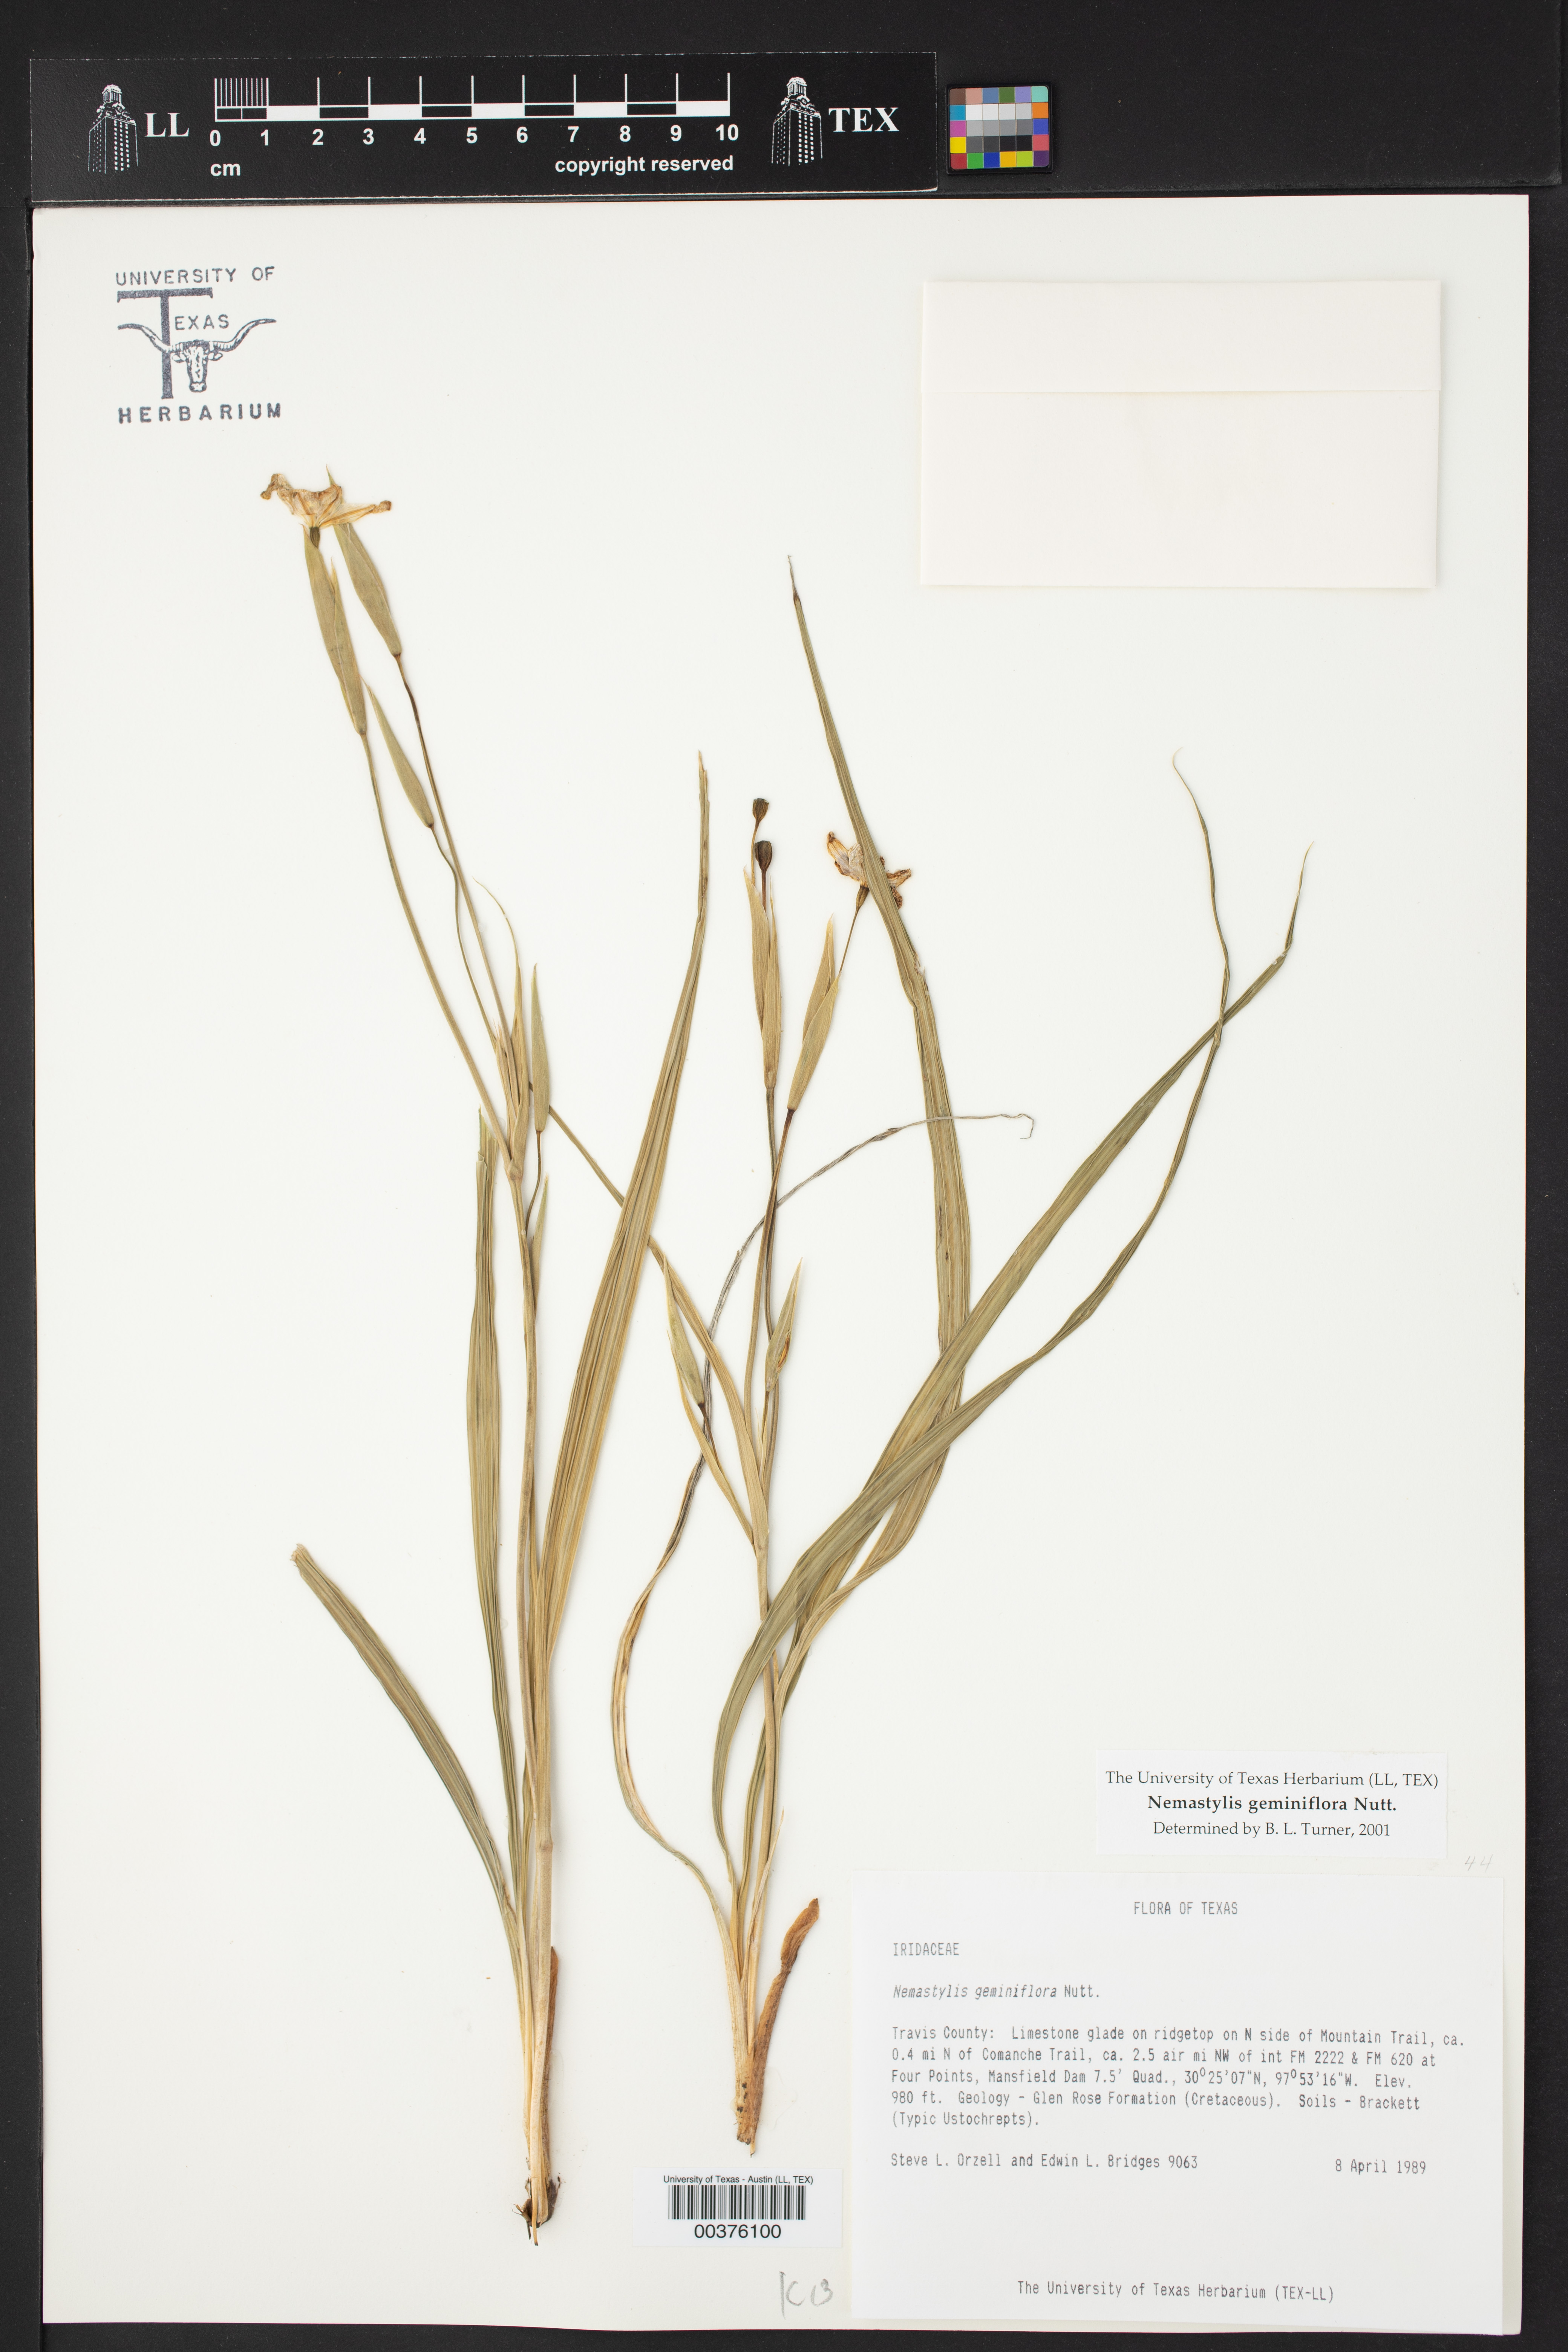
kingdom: Plantae
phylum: Tracheophyta
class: Liliopsida
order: Asparagales
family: Iridaceae
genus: Nemastylis
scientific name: Nemastylis geminiflora
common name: Prairie celestial
